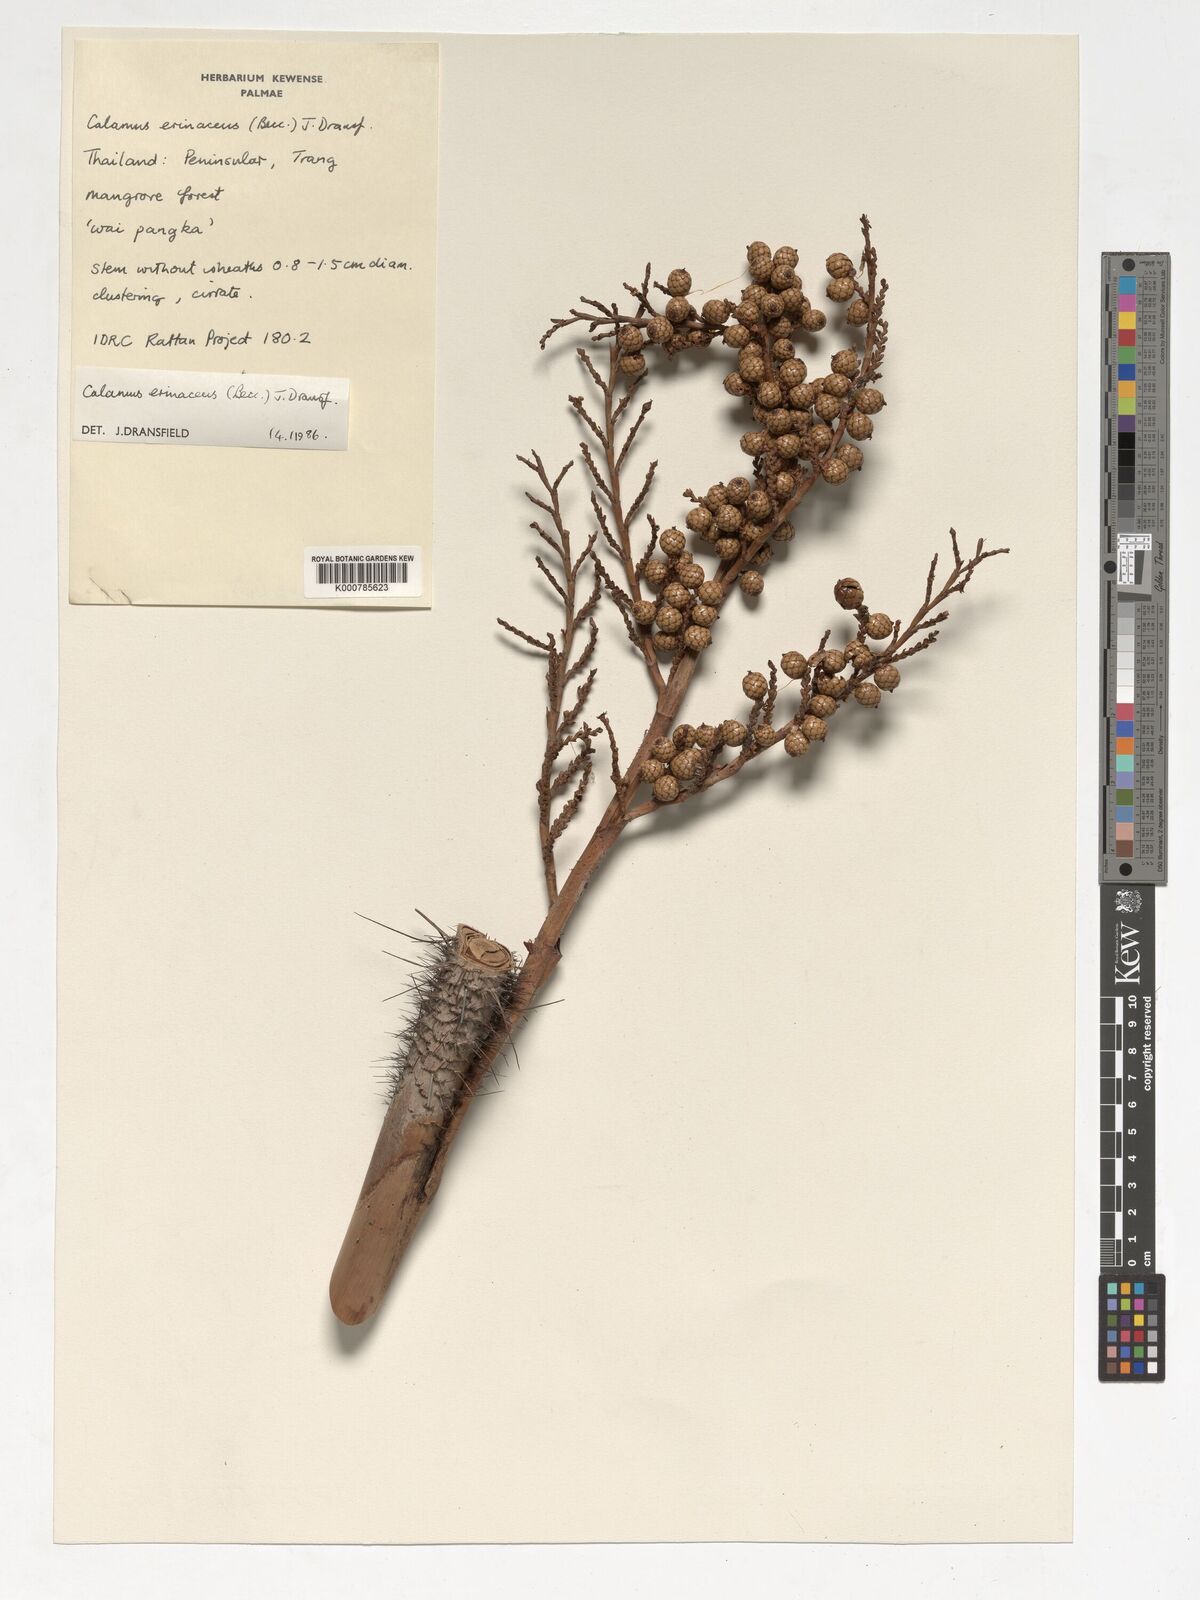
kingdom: Plantae
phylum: Tracheophyta
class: Liliopsida
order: Arecales
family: Arecaceae
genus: Calamus
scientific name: Calamus erinaceus
